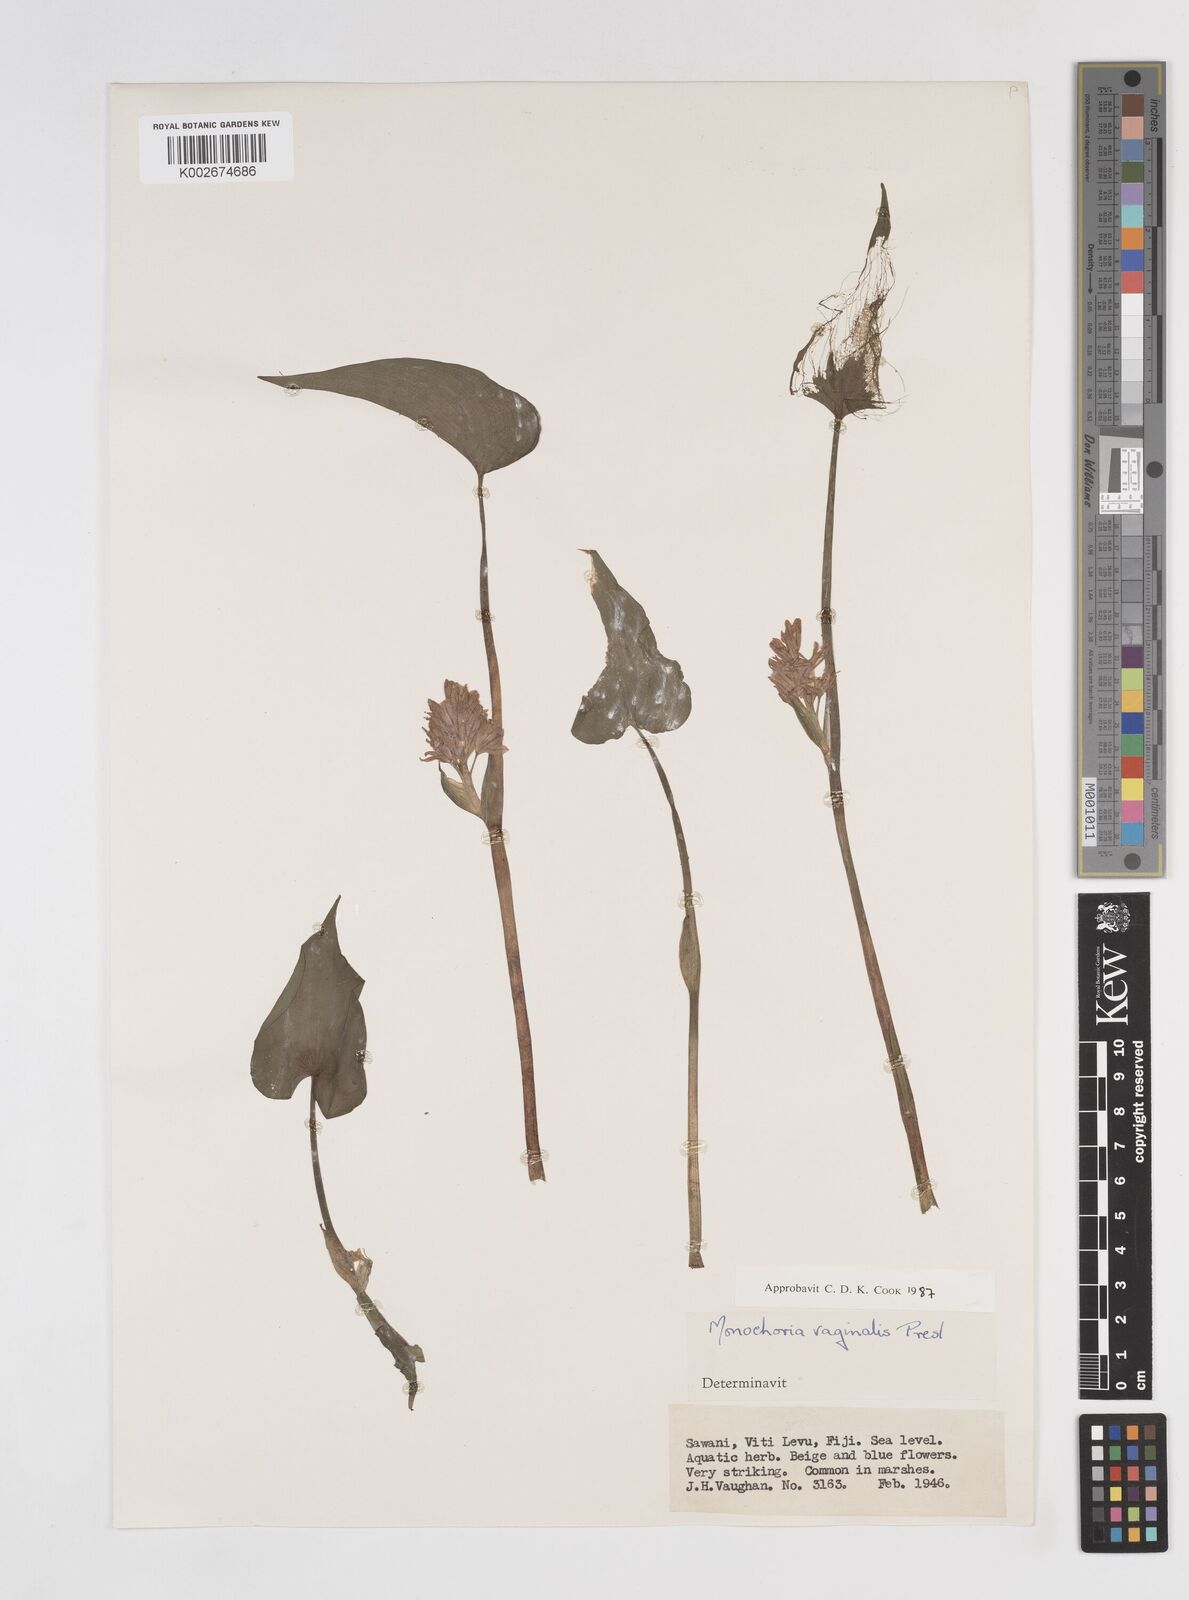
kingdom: Plantae
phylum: Tracheophyta
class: Liliopsida
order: Commelinales
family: Pontederiaceae
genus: Pontederia
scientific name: Pontederia vaginalis
